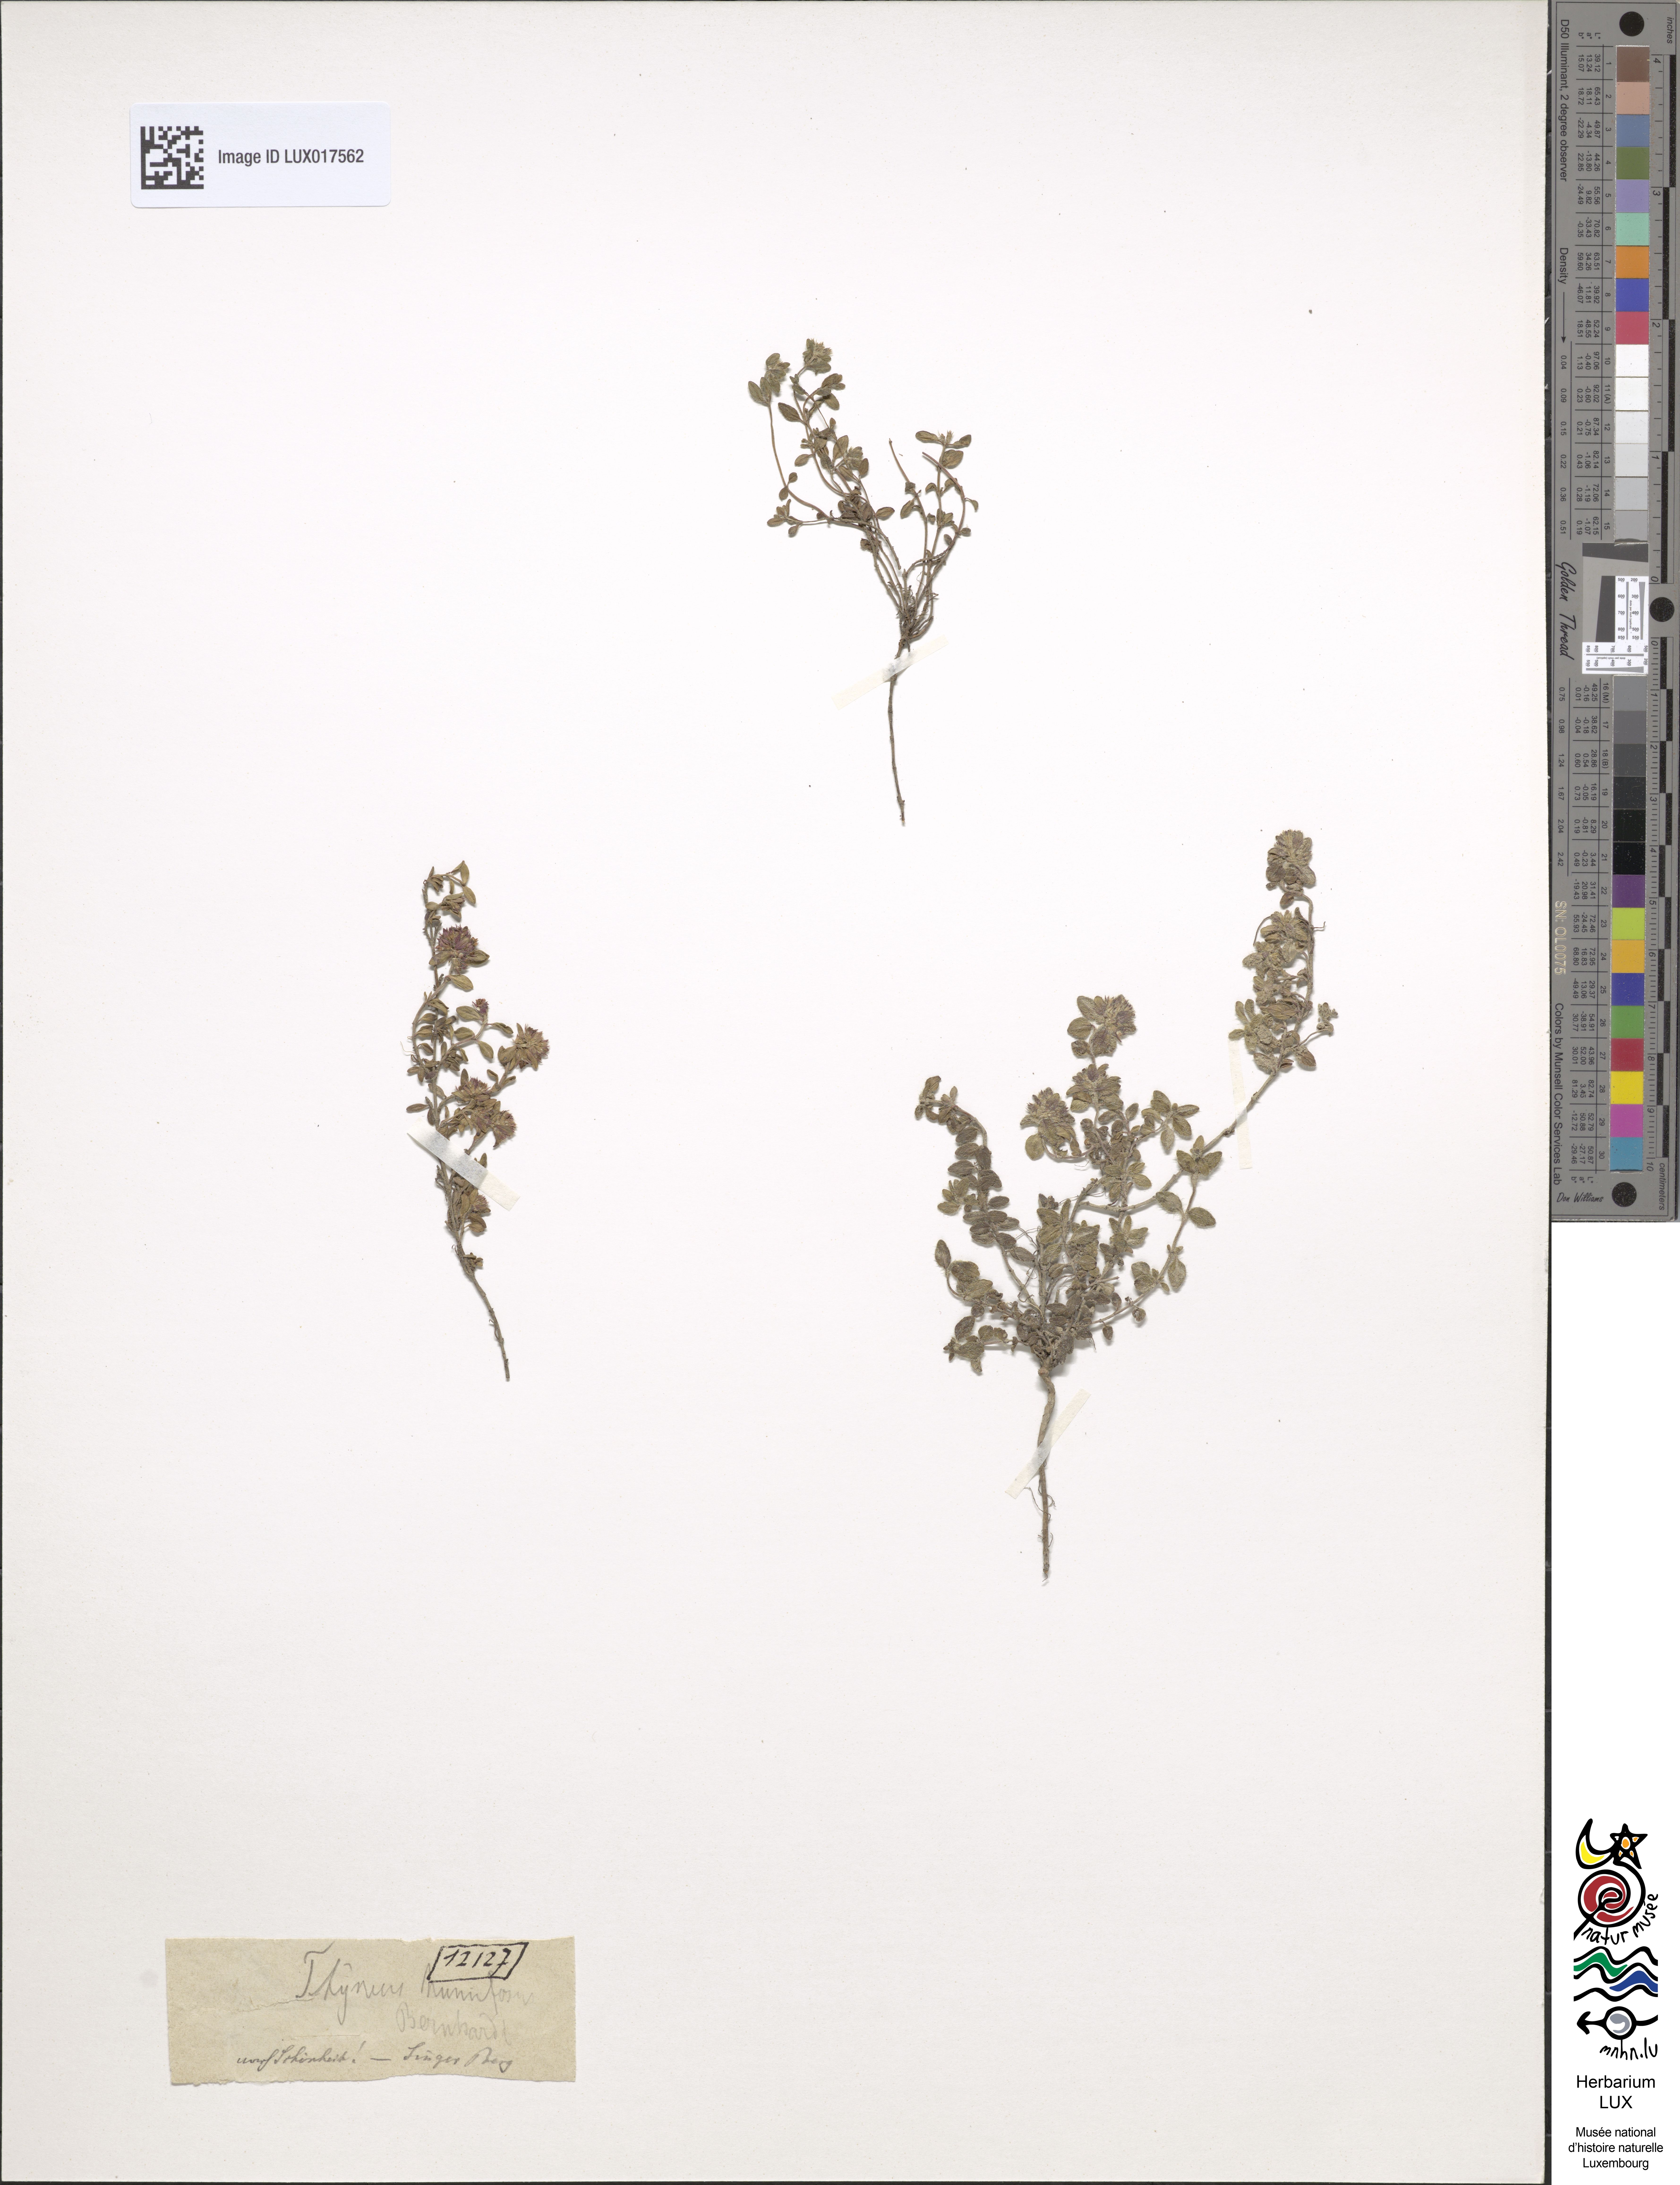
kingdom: Plantae
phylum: Tracheophyta
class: Magnoliopsida
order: Lamiales
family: Lamiaceae
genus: Thymus
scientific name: Thymus praecox
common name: Wild thyme
